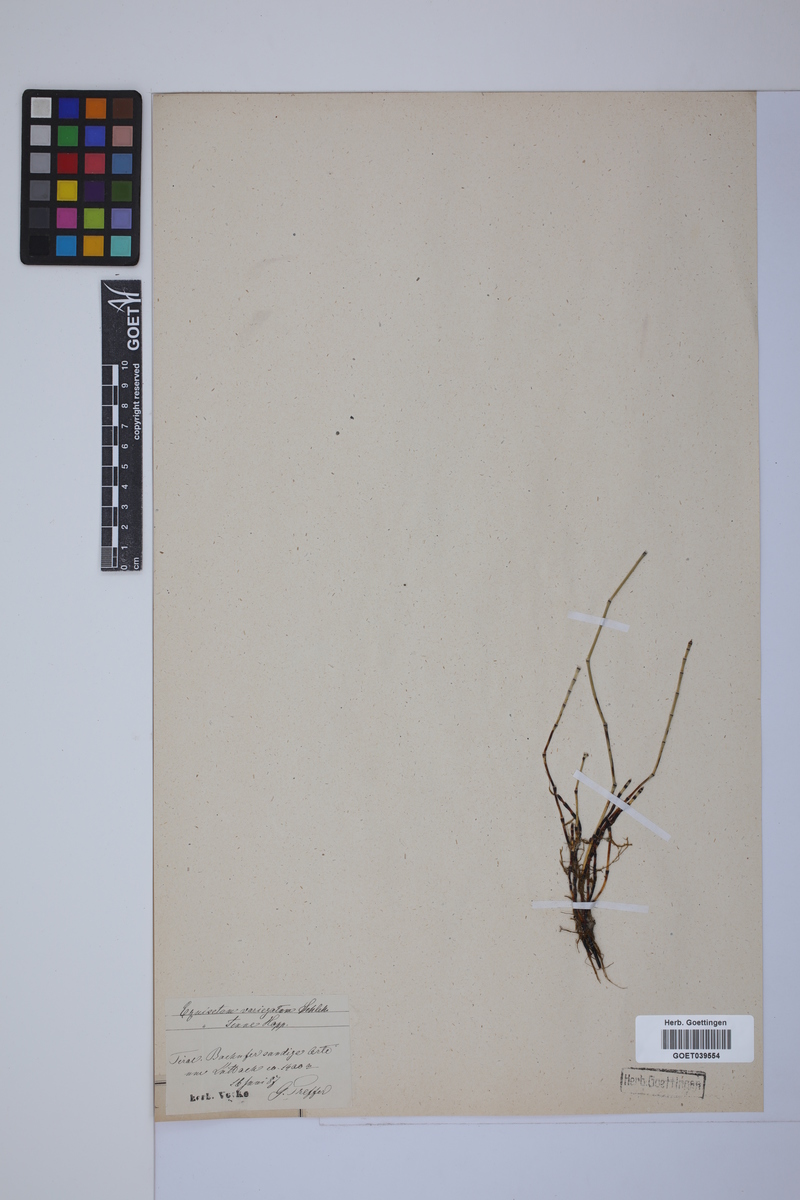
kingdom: Plantae
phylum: Tracheophyta
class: Polypodiopsida
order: Equisetales
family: Equisetaceae
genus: Equisetum
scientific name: Equisetum variegatum
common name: Variegated horsetail
